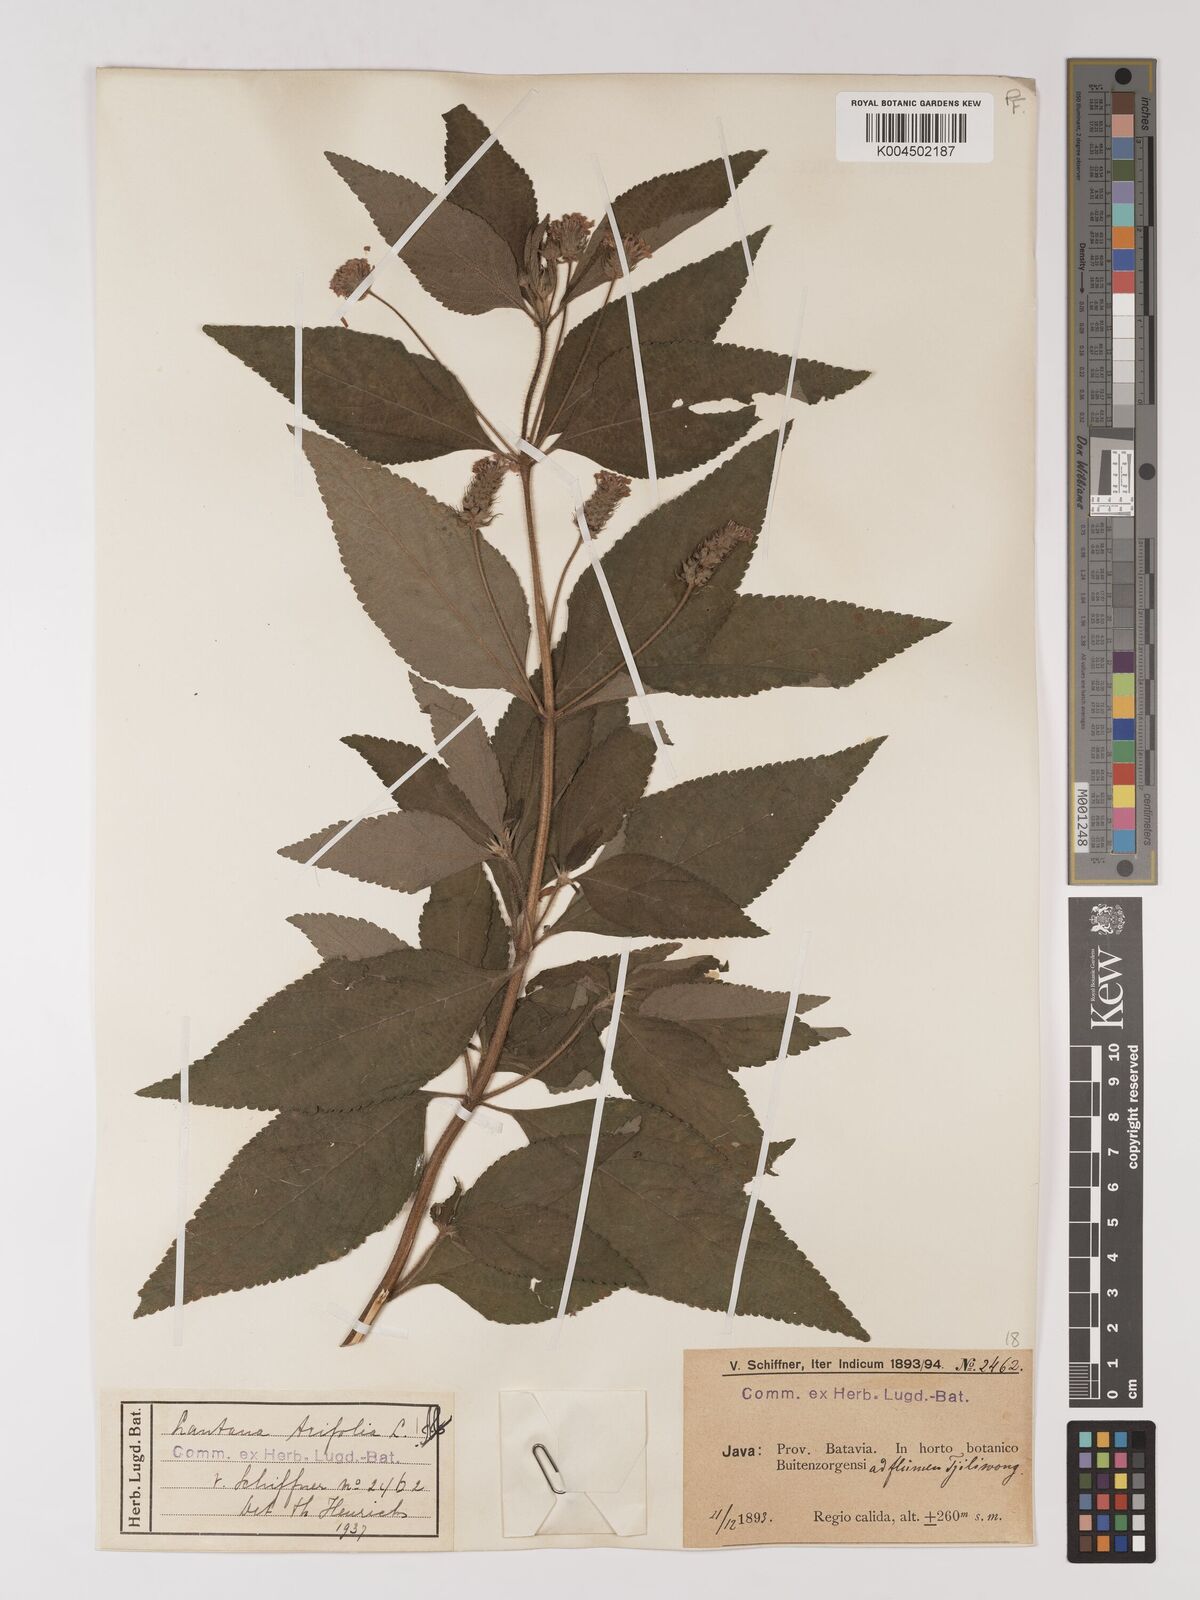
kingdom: Plantae
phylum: Tracheophyta
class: Magnoliopsida
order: Lamiales
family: Verbenaceae
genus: Lantana
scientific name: Lantana trifolia
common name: Sweet-sage
